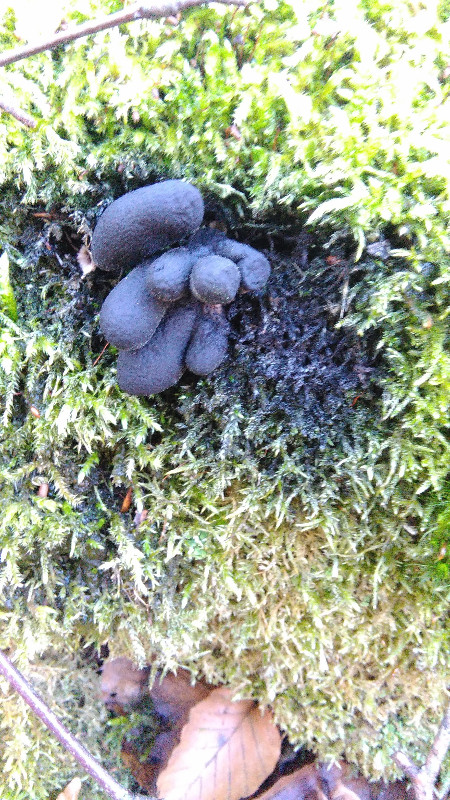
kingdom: Fungi
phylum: Ascomycota
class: Sordariomycetes
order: Xylariales
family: Xylariaceae
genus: Xylaria
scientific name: Xylaria polymorpha
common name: kølle-stødsvamp
